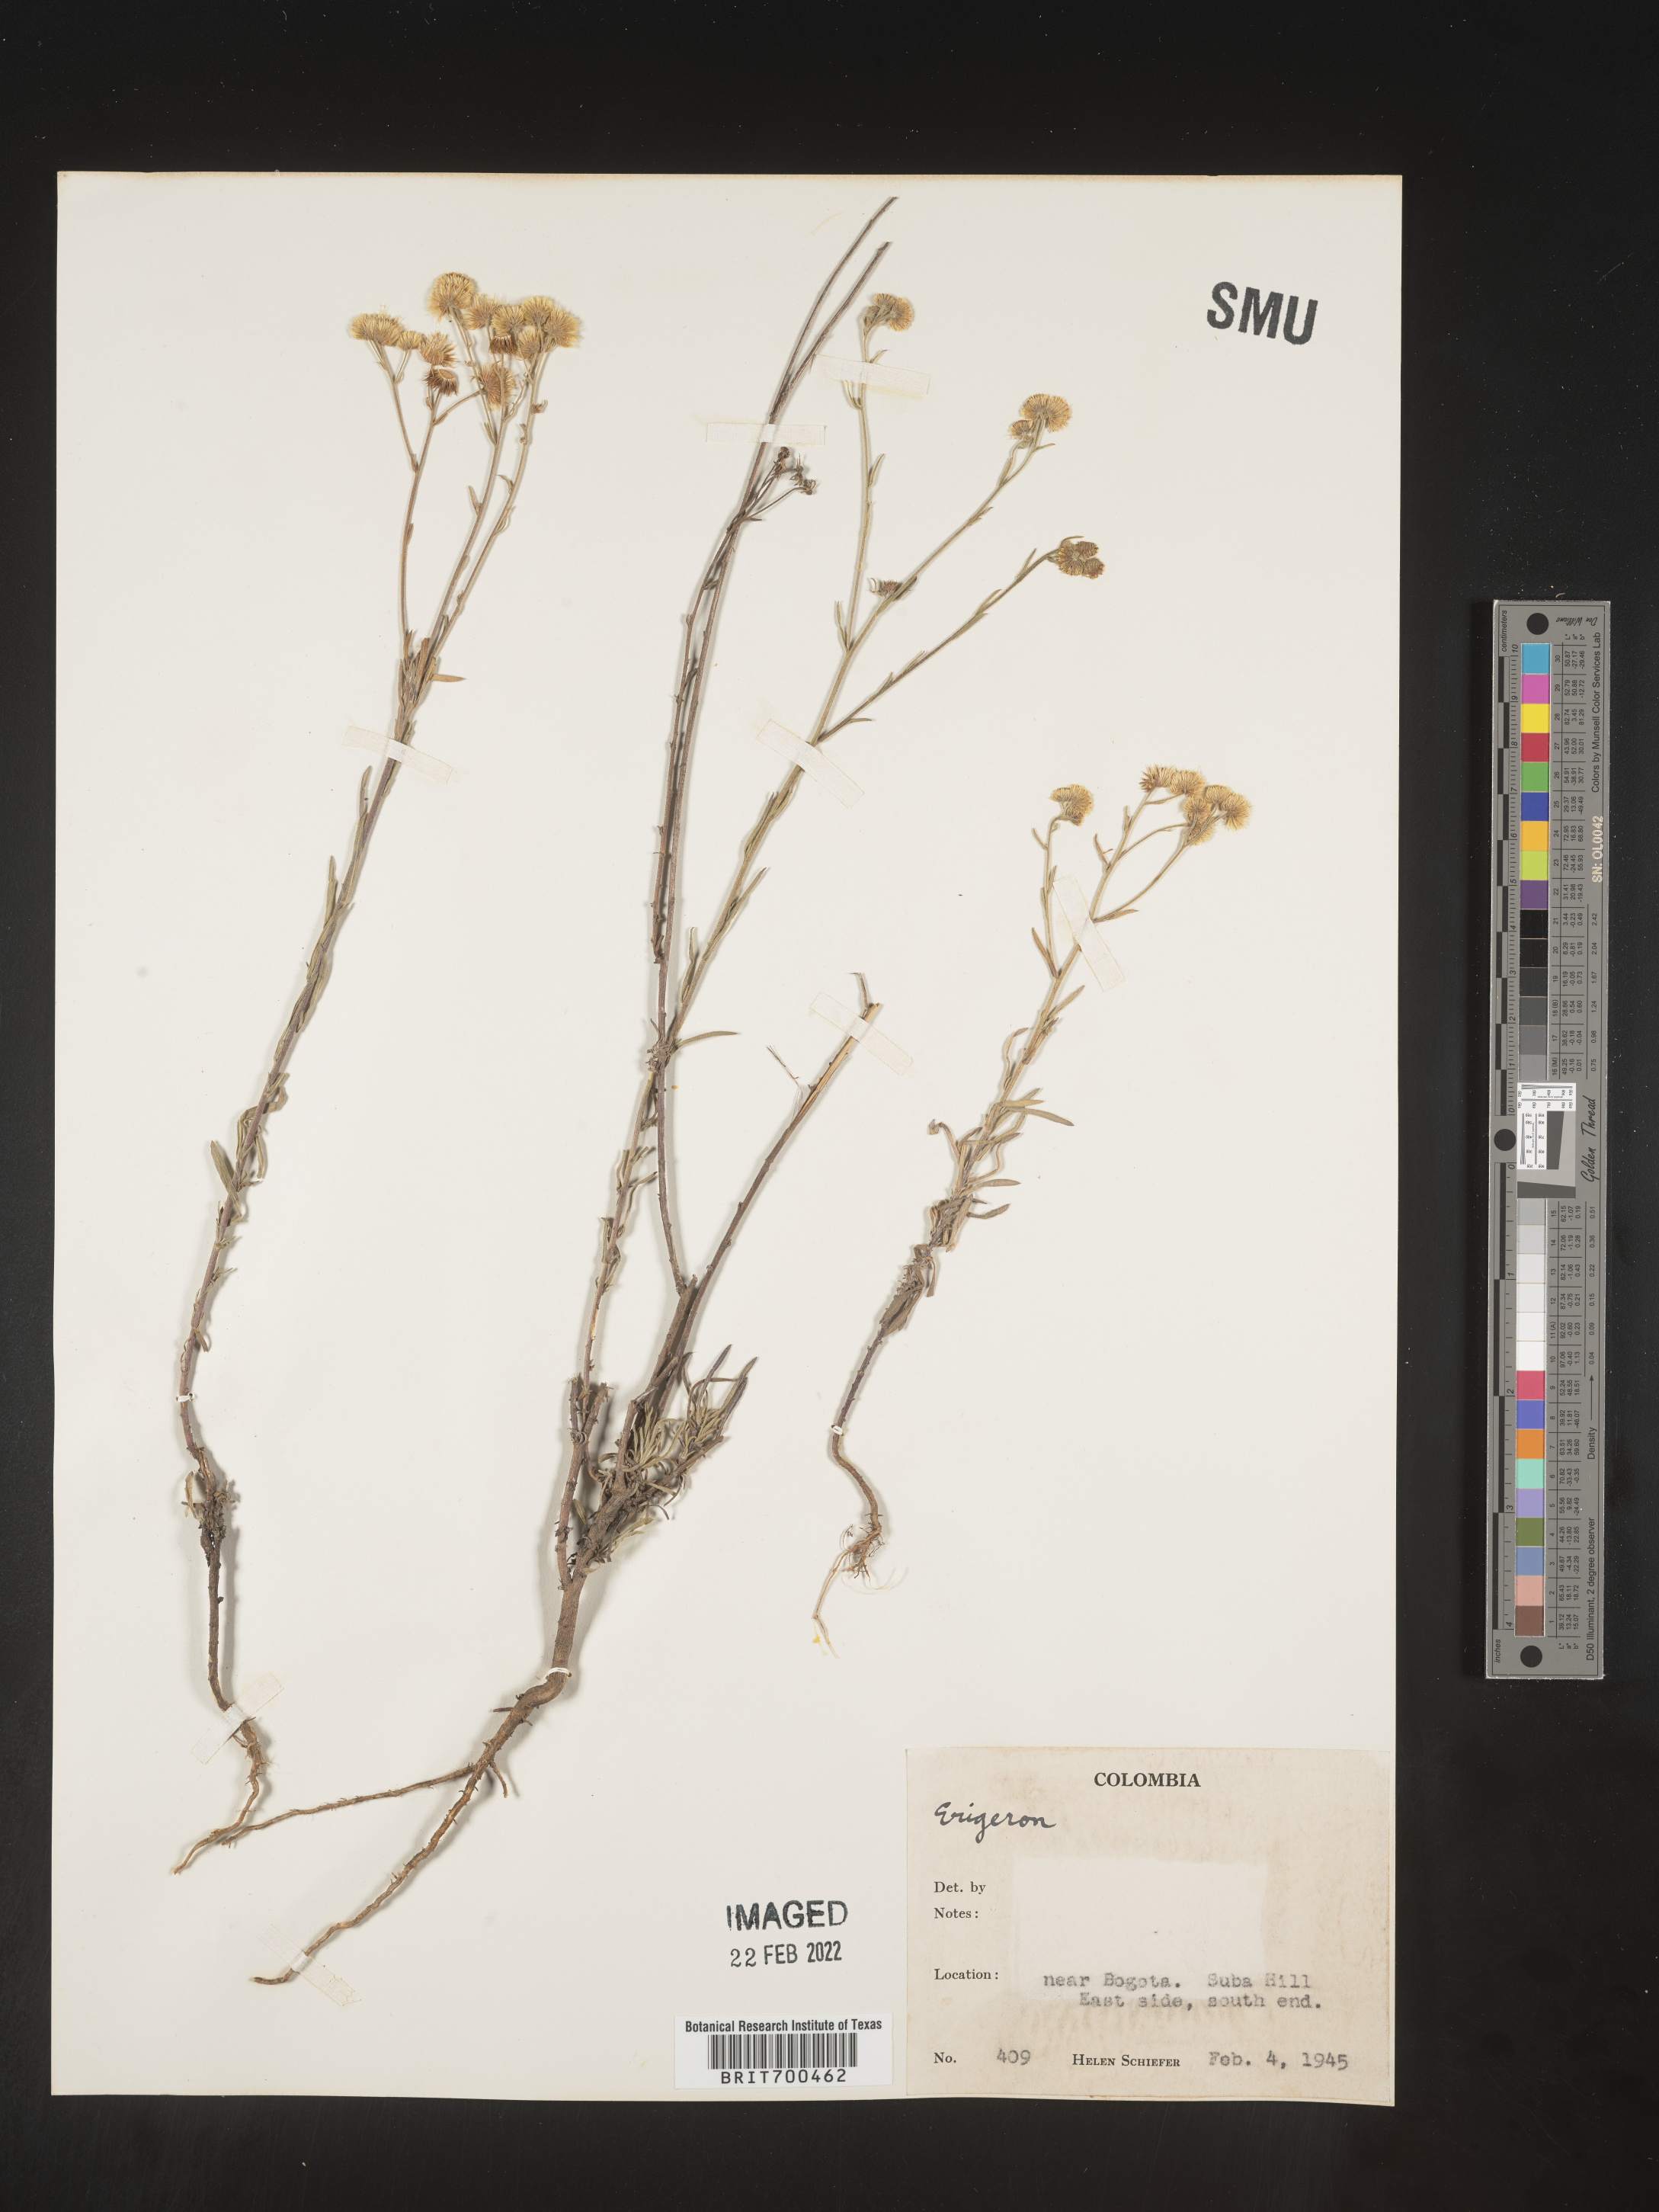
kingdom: Plantae
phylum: Tracheophyta
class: Magnoliopsida
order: Asterales
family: Asteraceae
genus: Erigeron
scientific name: Erigeron
